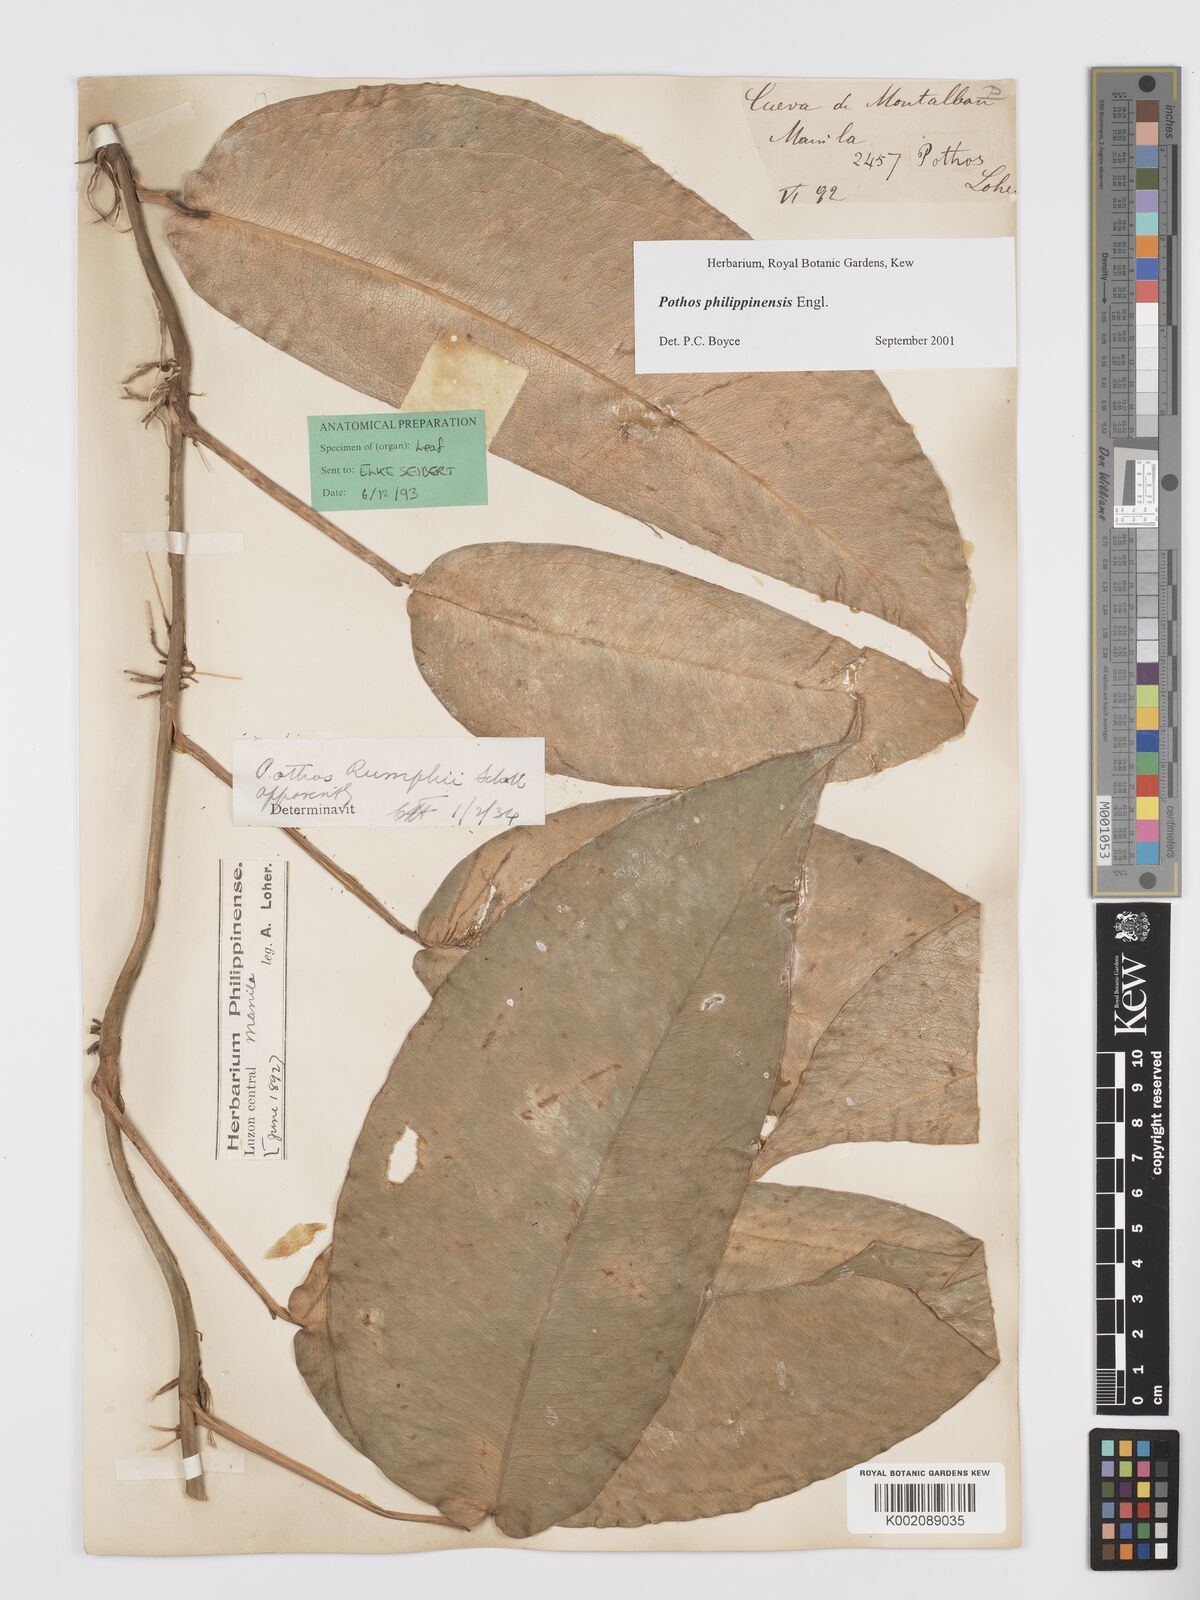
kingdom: Plantae
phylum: Tracheophyta
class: Liliopsida
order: Alismatales
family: Araceae
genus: Pothos
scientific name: Pothos philippinensis
